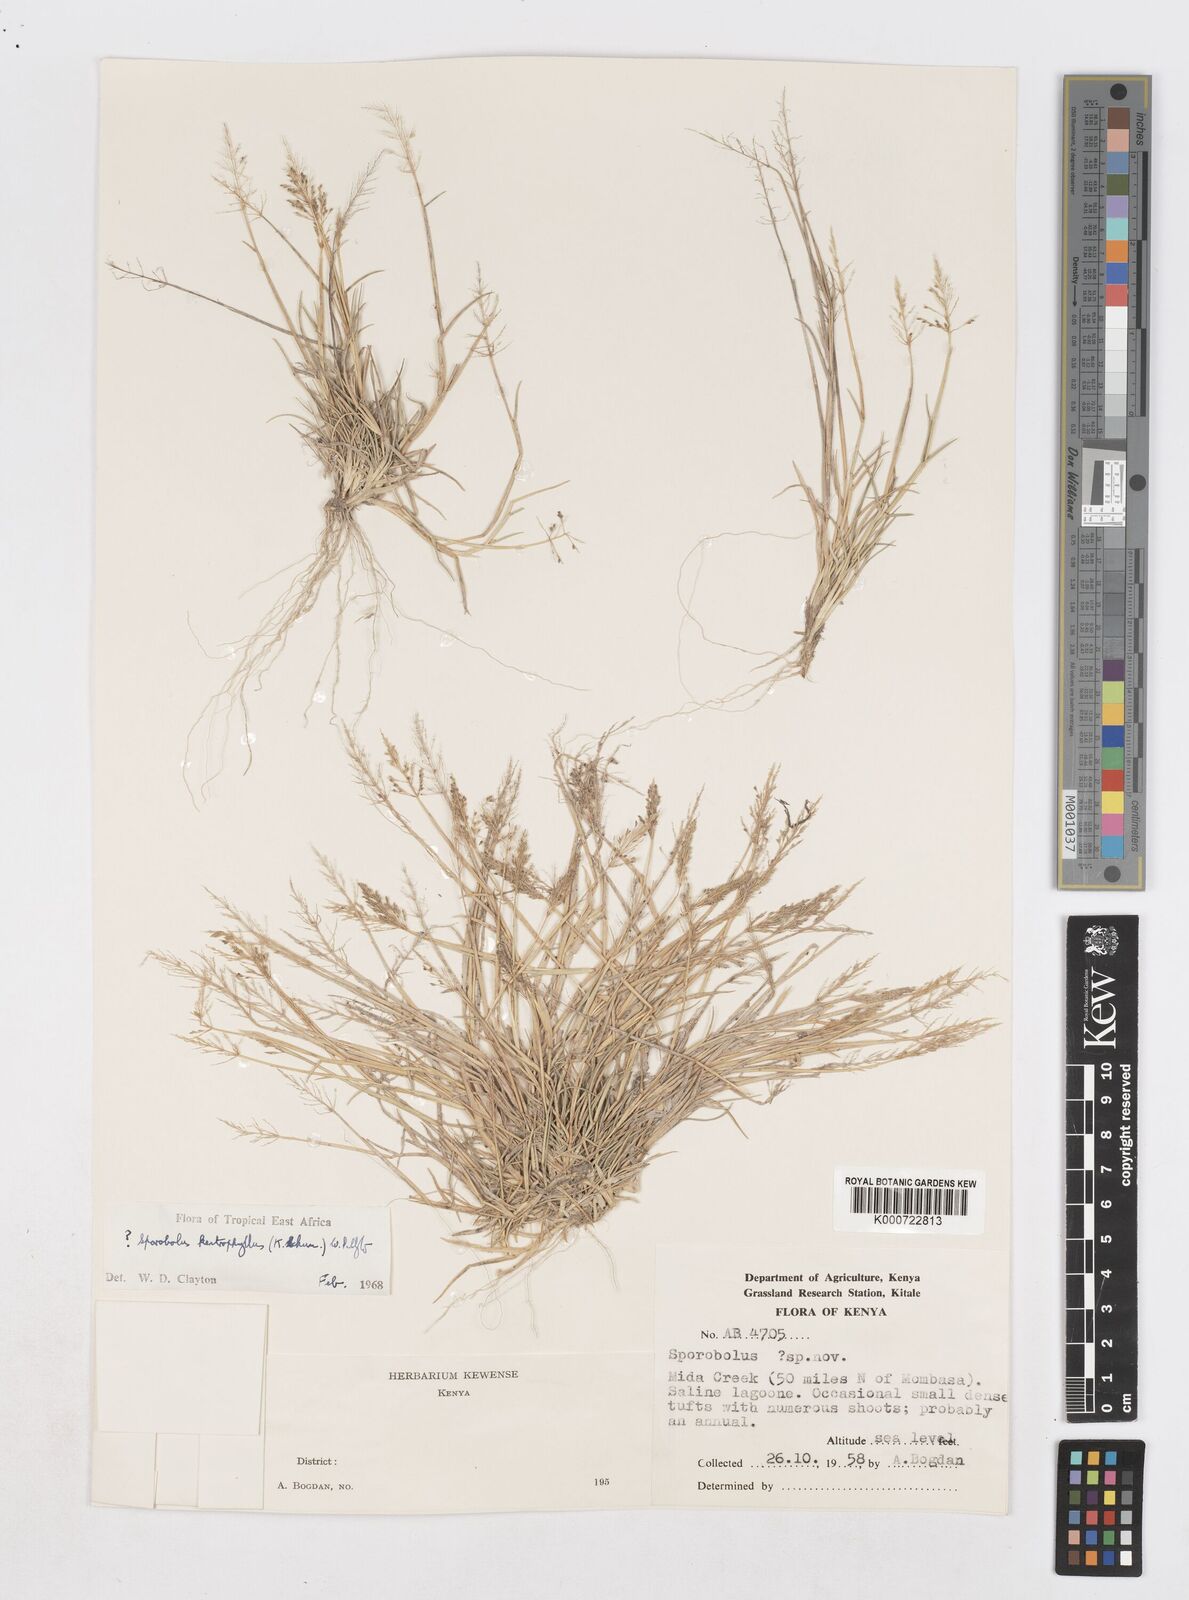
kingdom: Plantae
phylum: Tracheophyta
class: Liliopsida
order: Poales
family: Poaceae
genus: Sporobolus
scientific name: Sporobolus ioclados
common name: Pan dropseed
